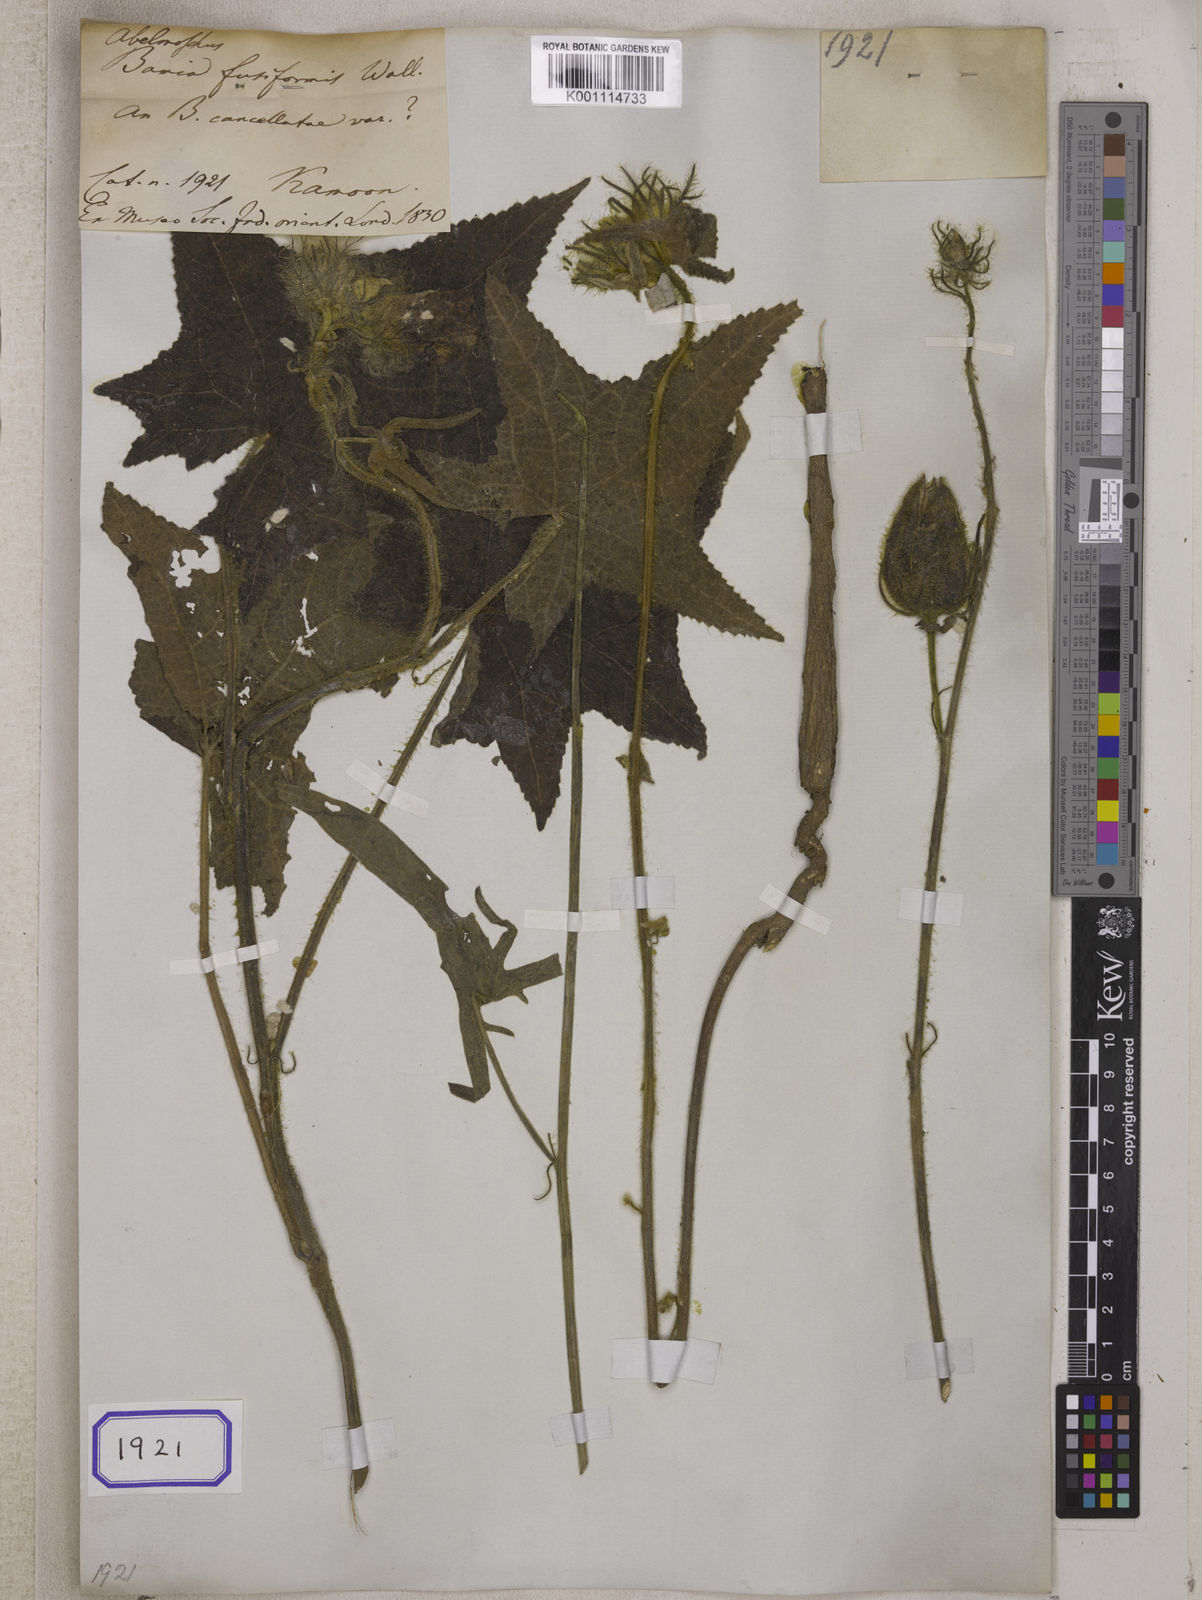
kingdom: Plantae
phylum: Tracheophyta
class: Magnoliopsida
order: Malvales
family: Malvaceae
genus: Bamia
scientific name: Bamia
